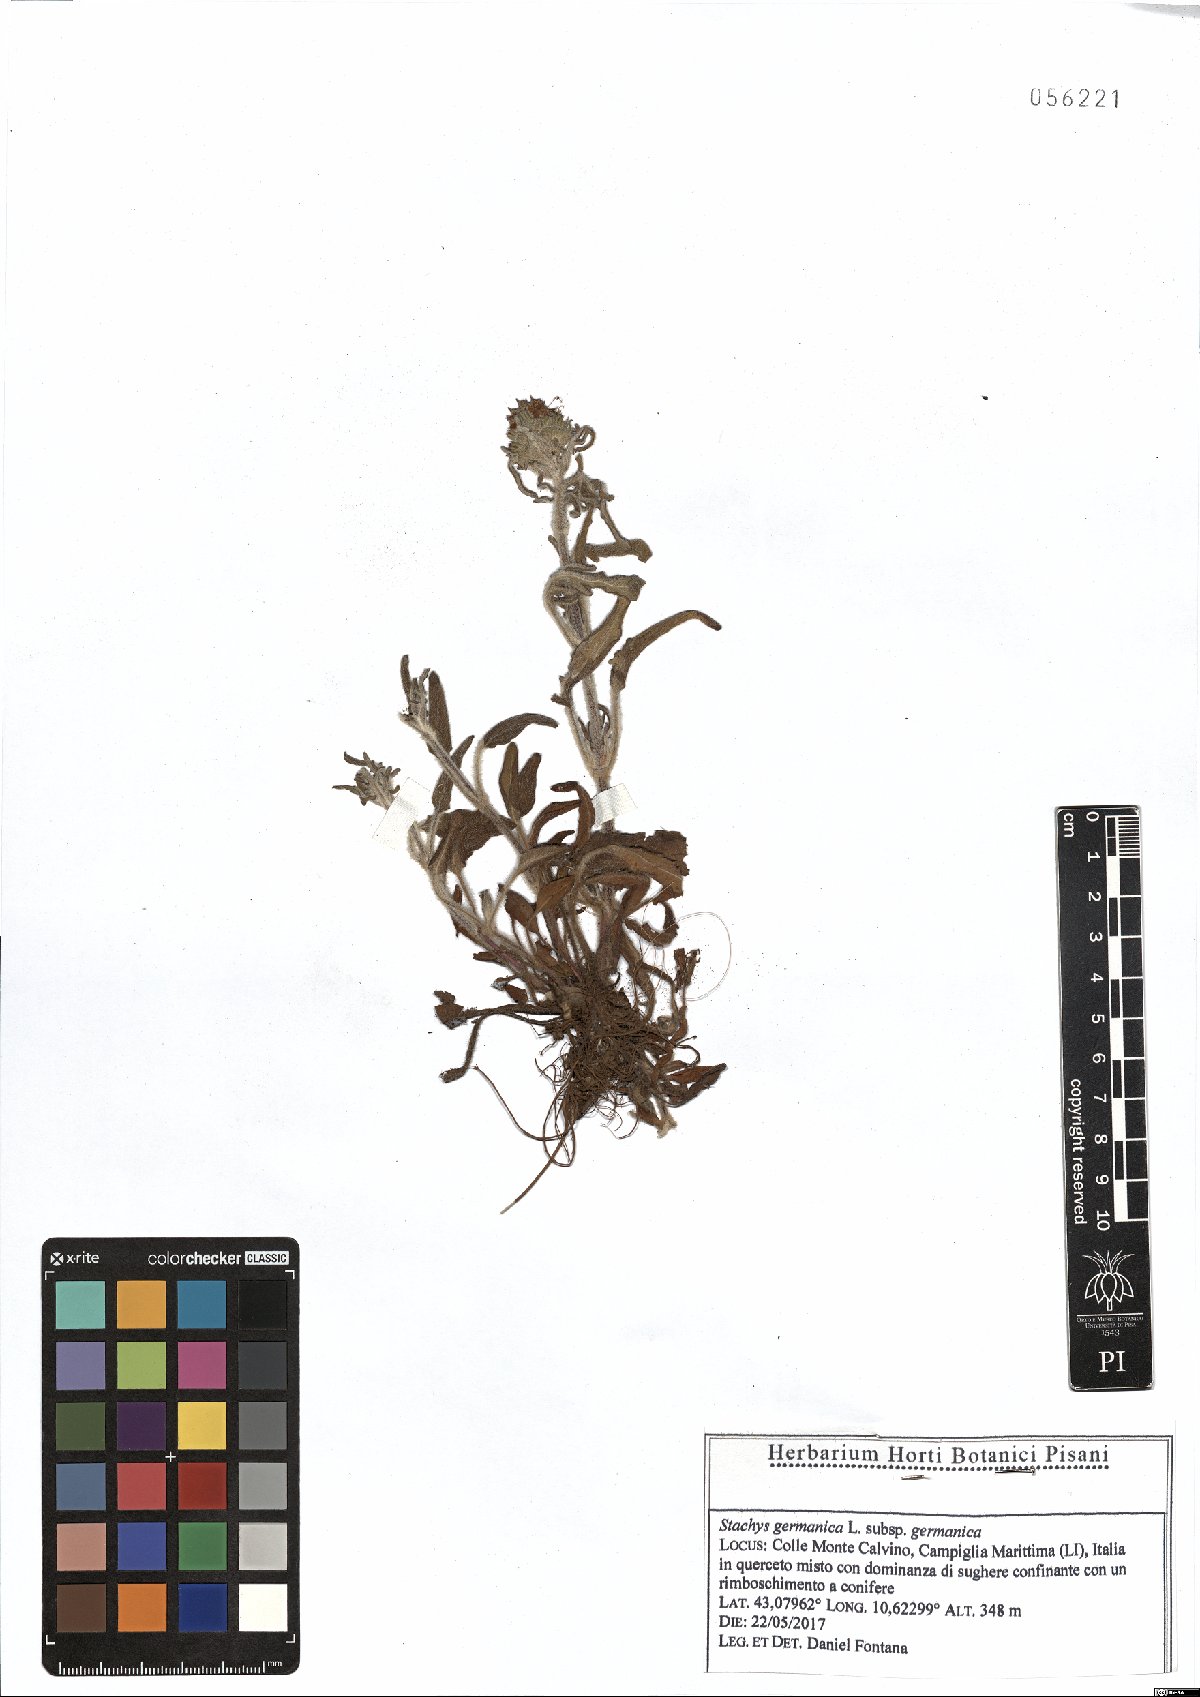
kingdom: Plantae
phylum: Tracheophyta
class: Magnoliopsida
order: Lamiales
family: Lamiaceae
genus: Stachys
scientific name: Stachys germanica
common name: Downy woundwort
